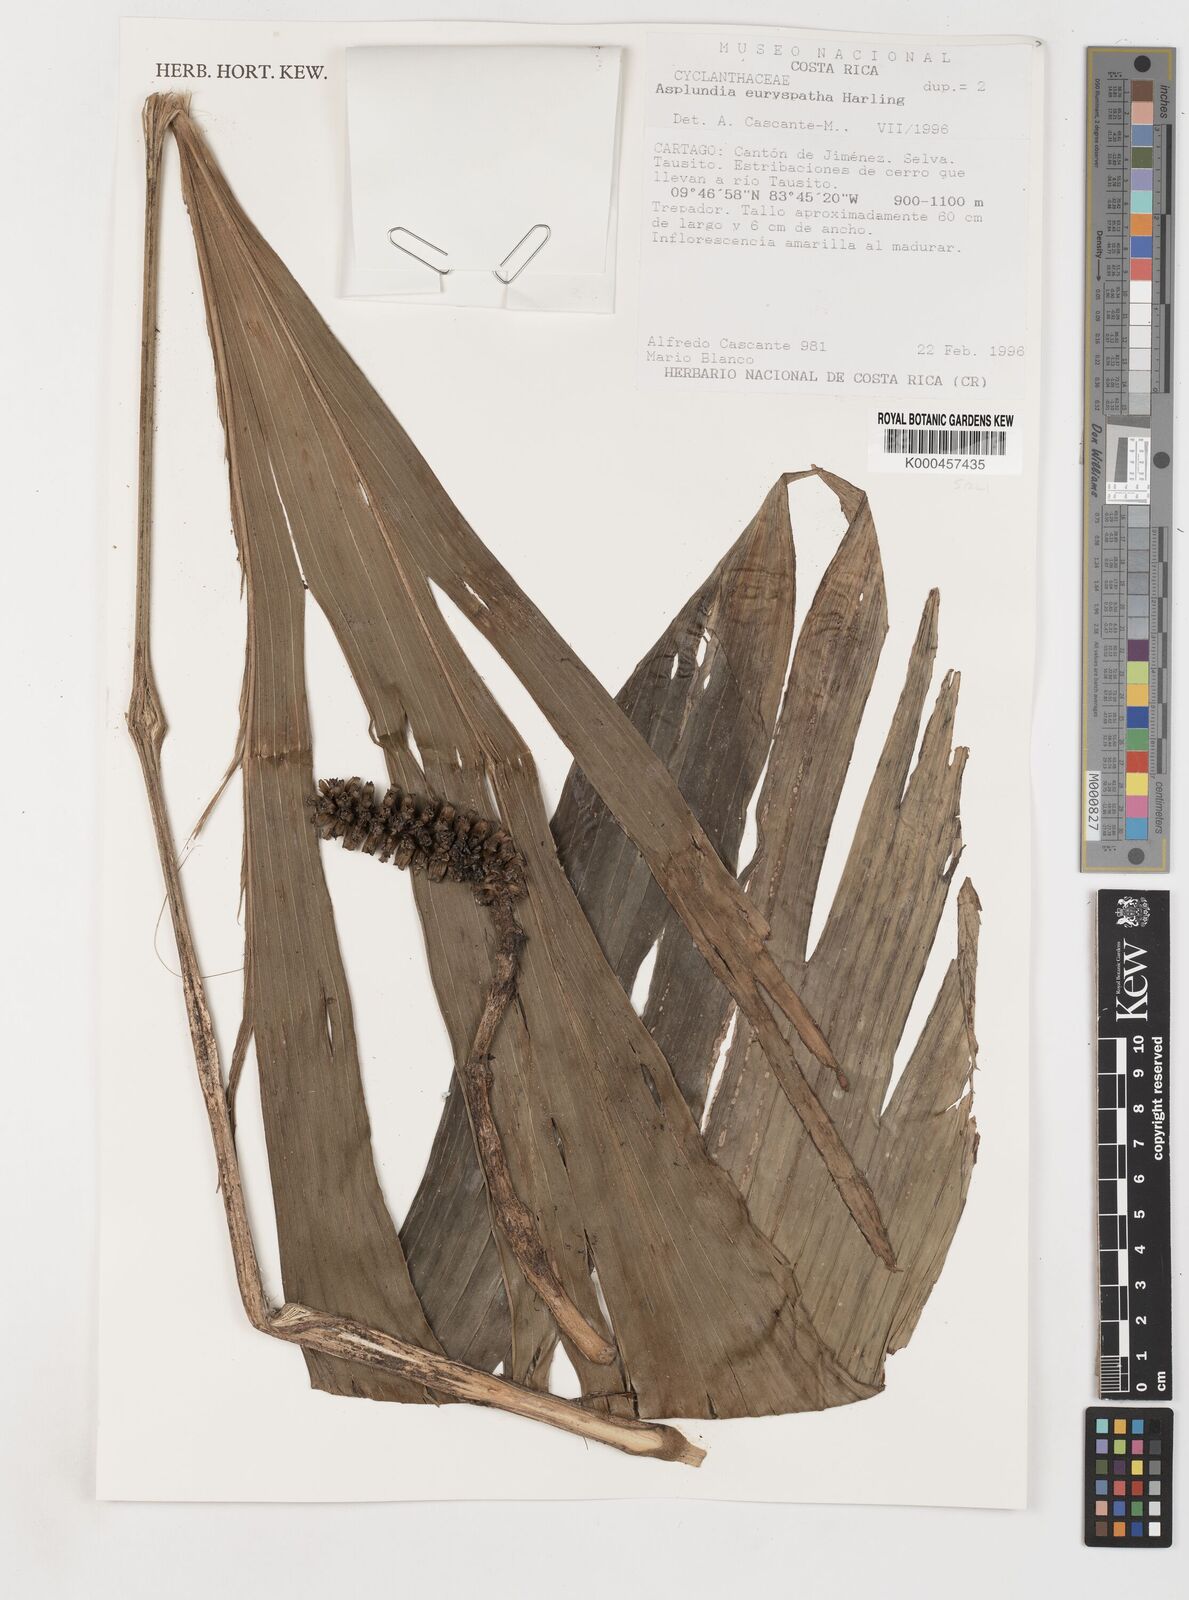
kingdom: Plantae
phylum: Tracheophyta
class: Liliopsida
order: Pandanales
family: Cyclanthaceae
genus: Asplundia
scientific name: Asplundia euryspatha
